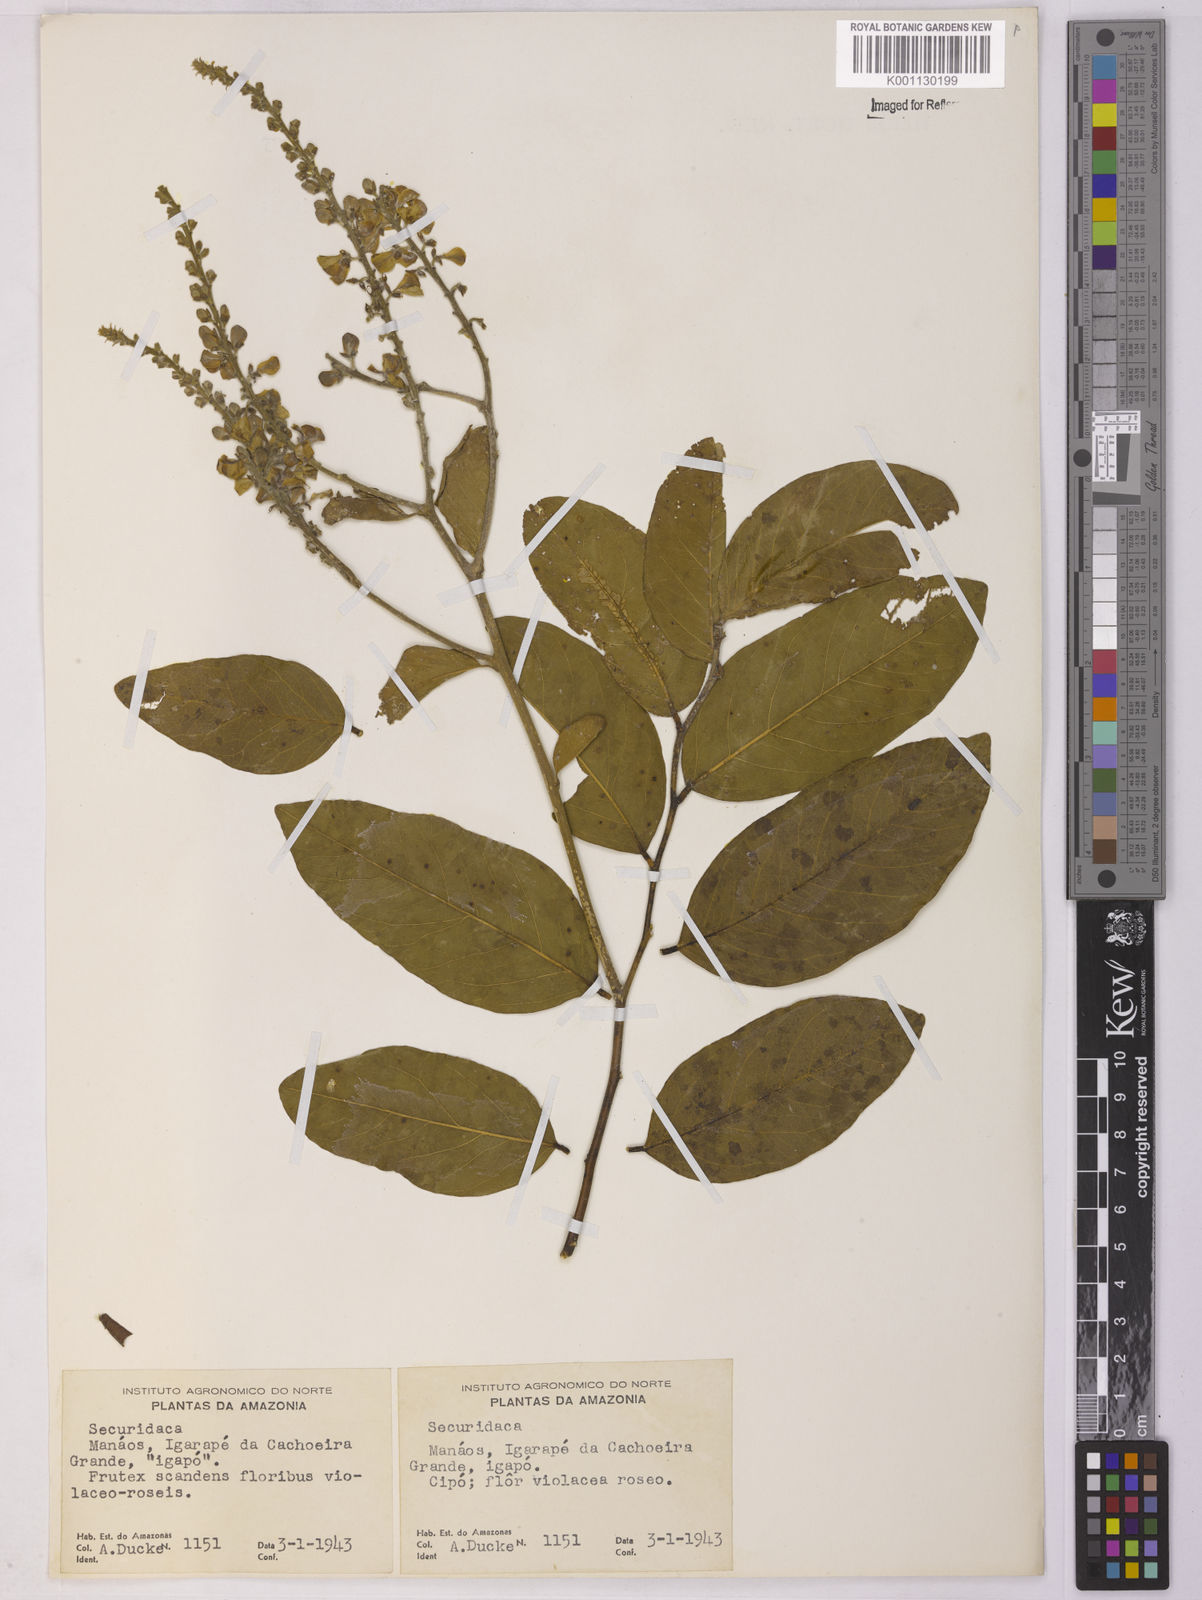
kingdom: Plantae
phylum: Tracheophyta
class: Magnoliopsida
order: Fabales
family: Polygalaceae
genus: Securidaca
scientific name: Securidaca
